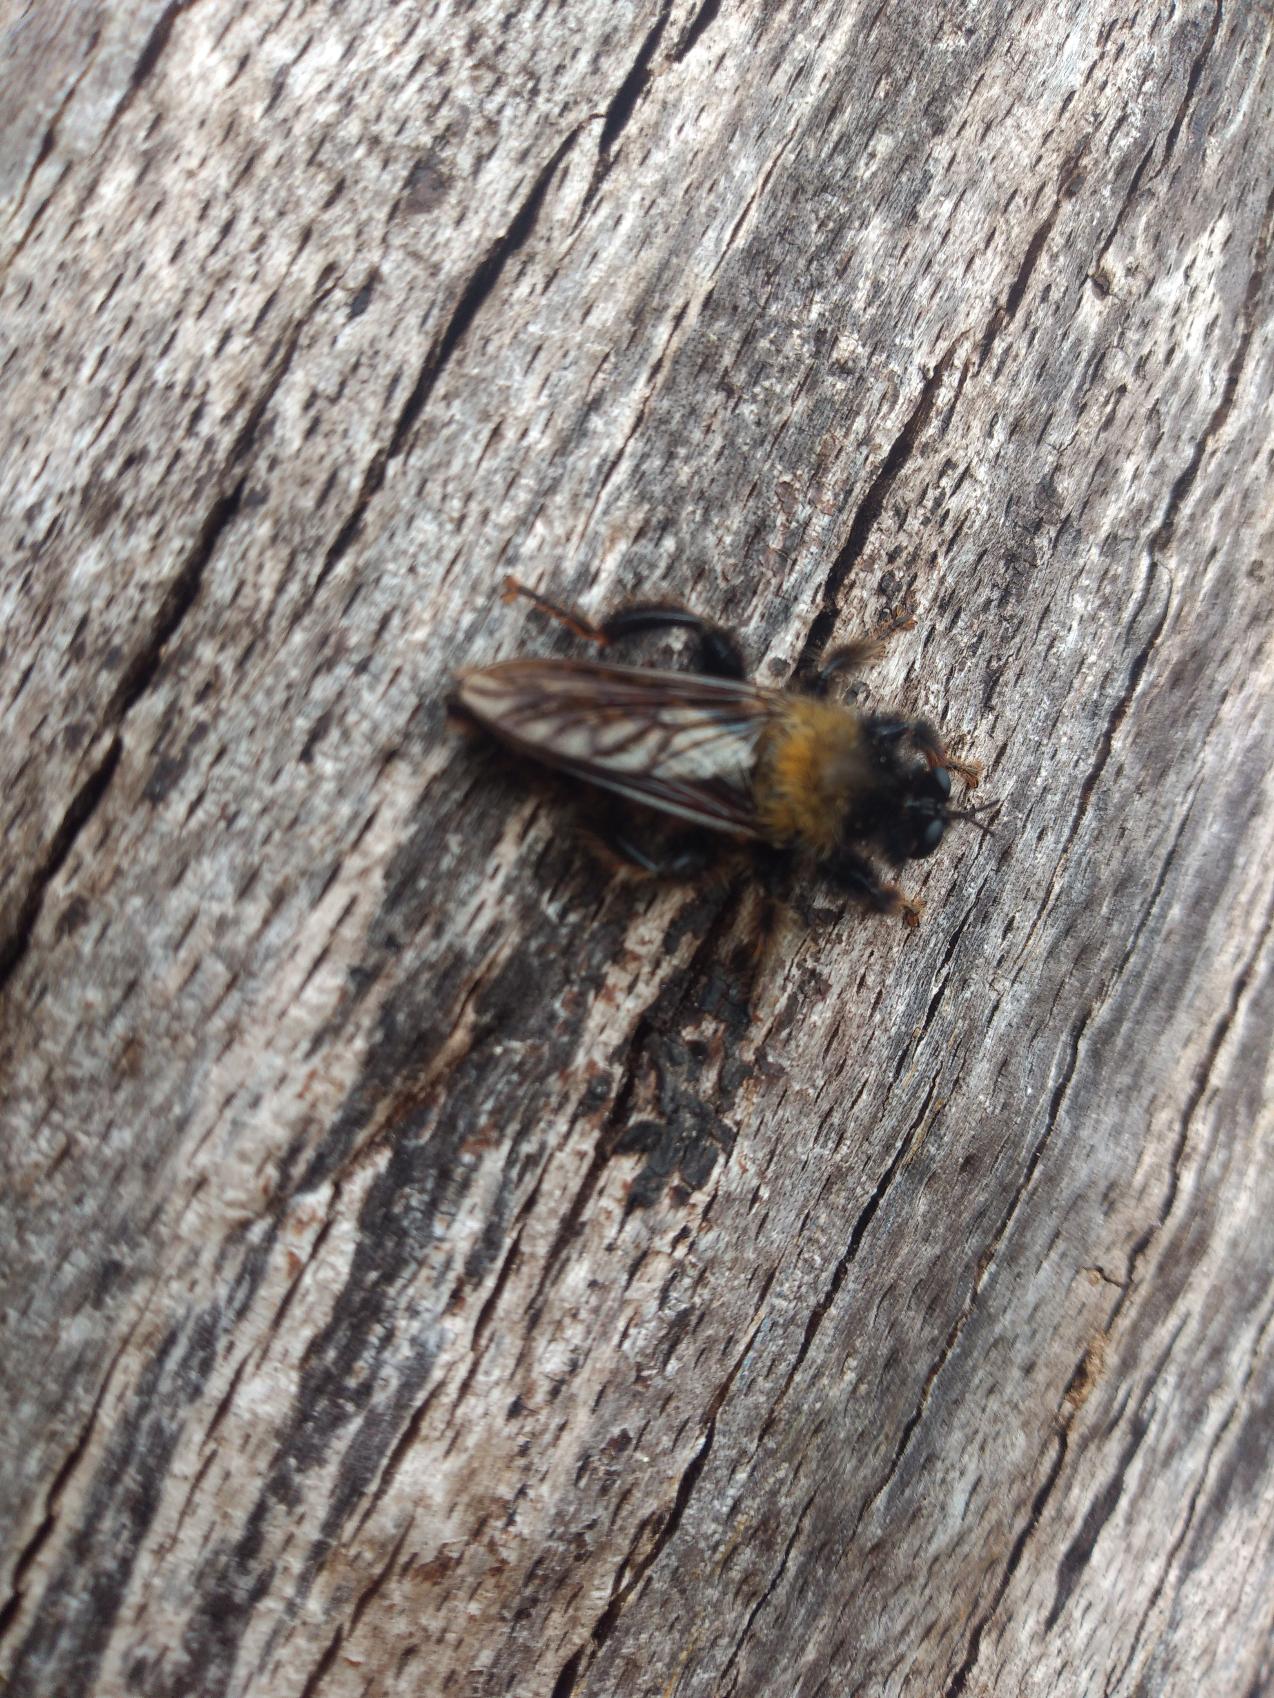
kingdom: Animalia
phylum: Arthropoda
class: Insecta
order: Diptera
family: Asilidae
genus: Laphria
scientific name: Laphria ephippium
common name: Sort vedrovflue
